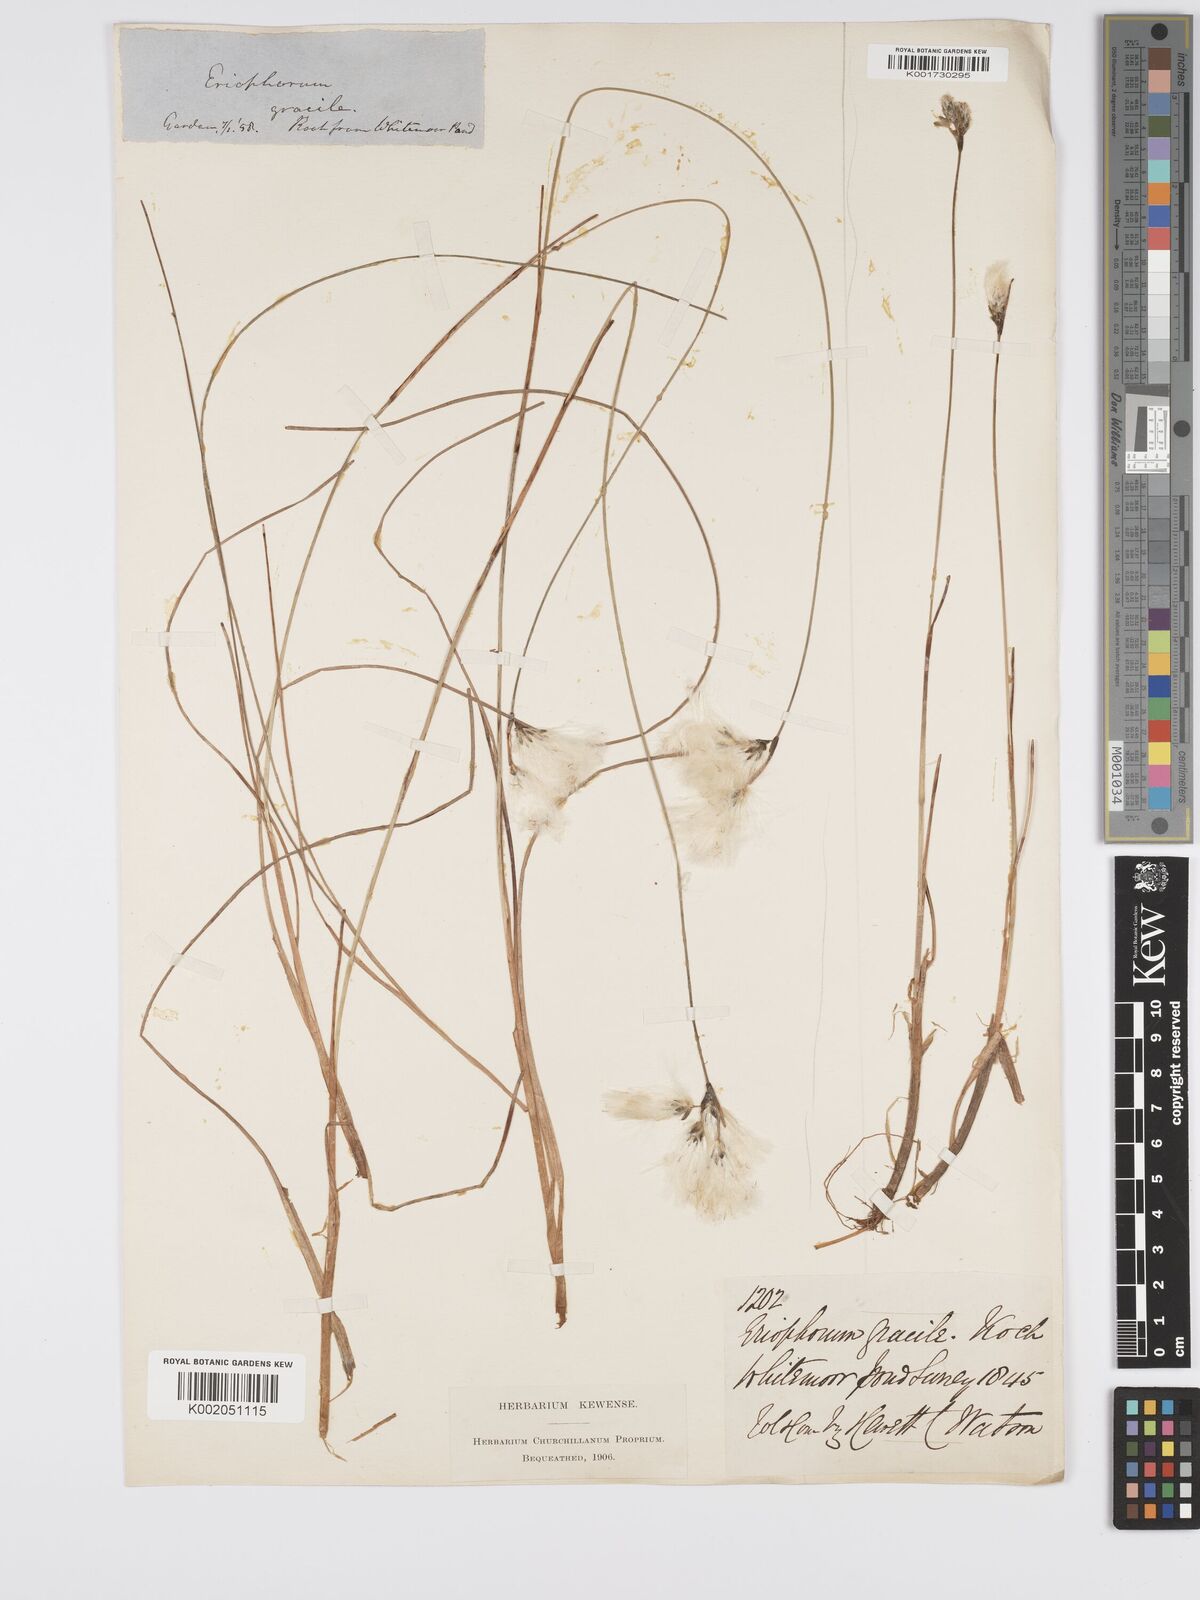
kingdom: Plantae
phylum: Tracheophyta
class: Liliopsida
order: Poales
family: Cyperaceae
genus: Eriophorum
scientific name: Eriophorum gracile
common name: Slender cottongrass
